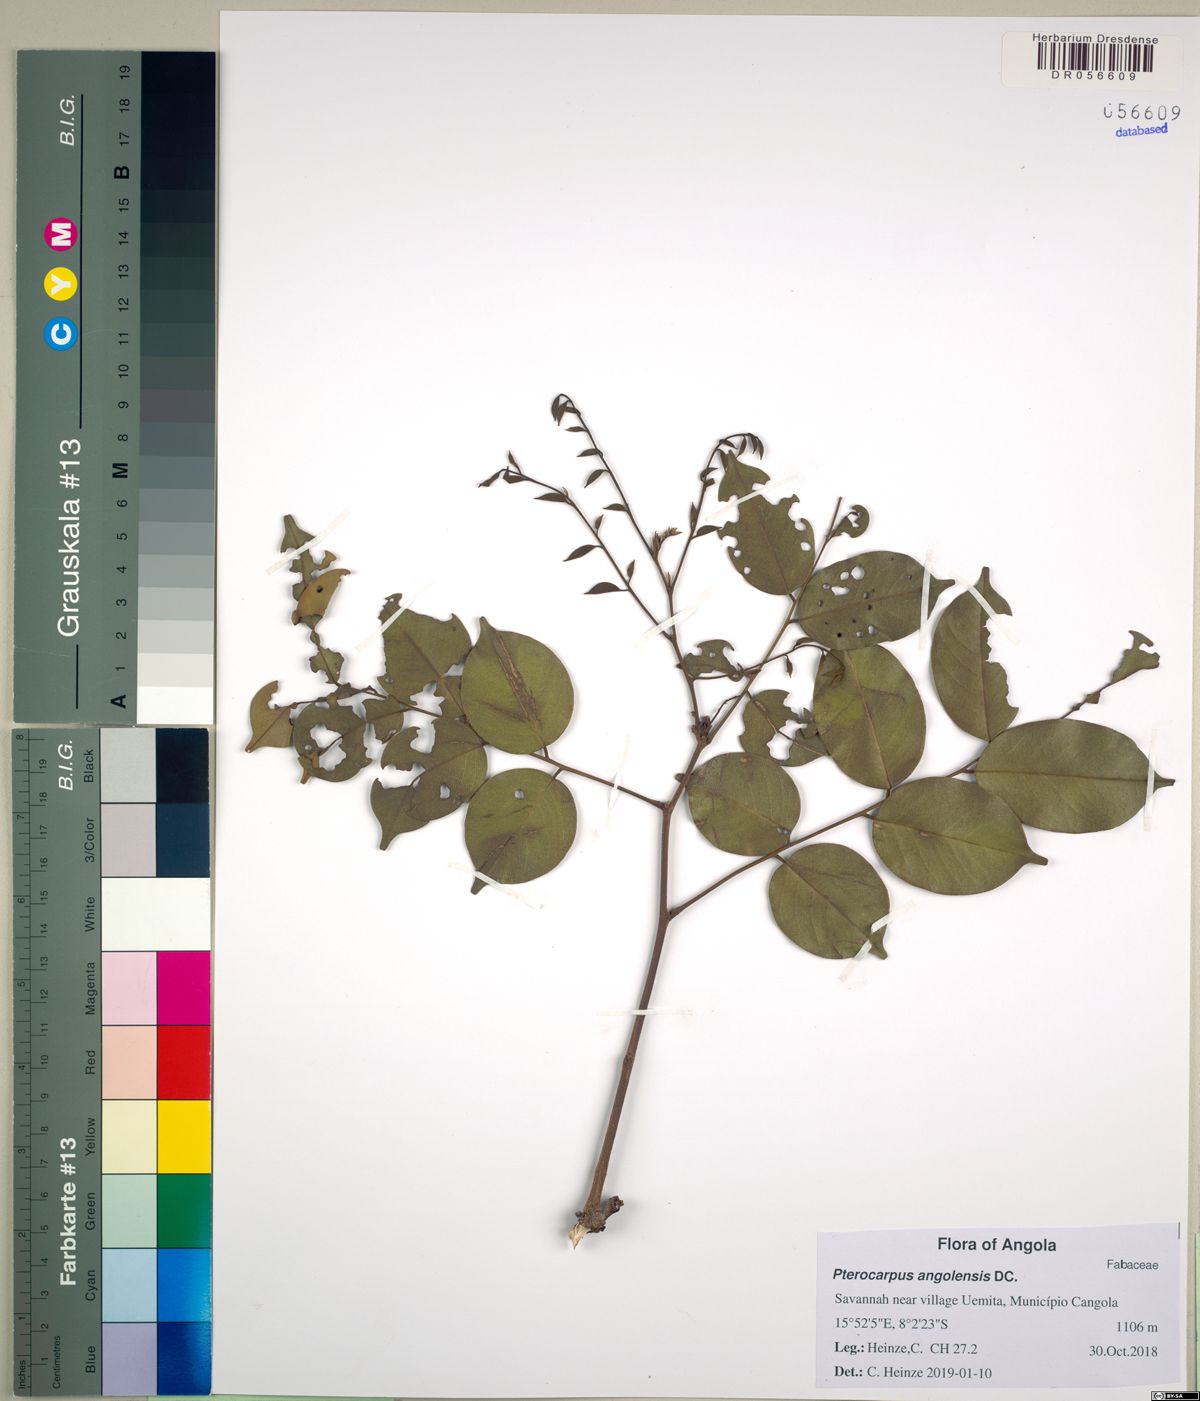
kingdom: Plantae
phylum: Tracheophyta
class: Magnoliopsida
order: Fabales
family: Fabaceae
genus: Pterocarpus
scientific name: Pterocarpus angolensis
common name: Bloodwood tree
